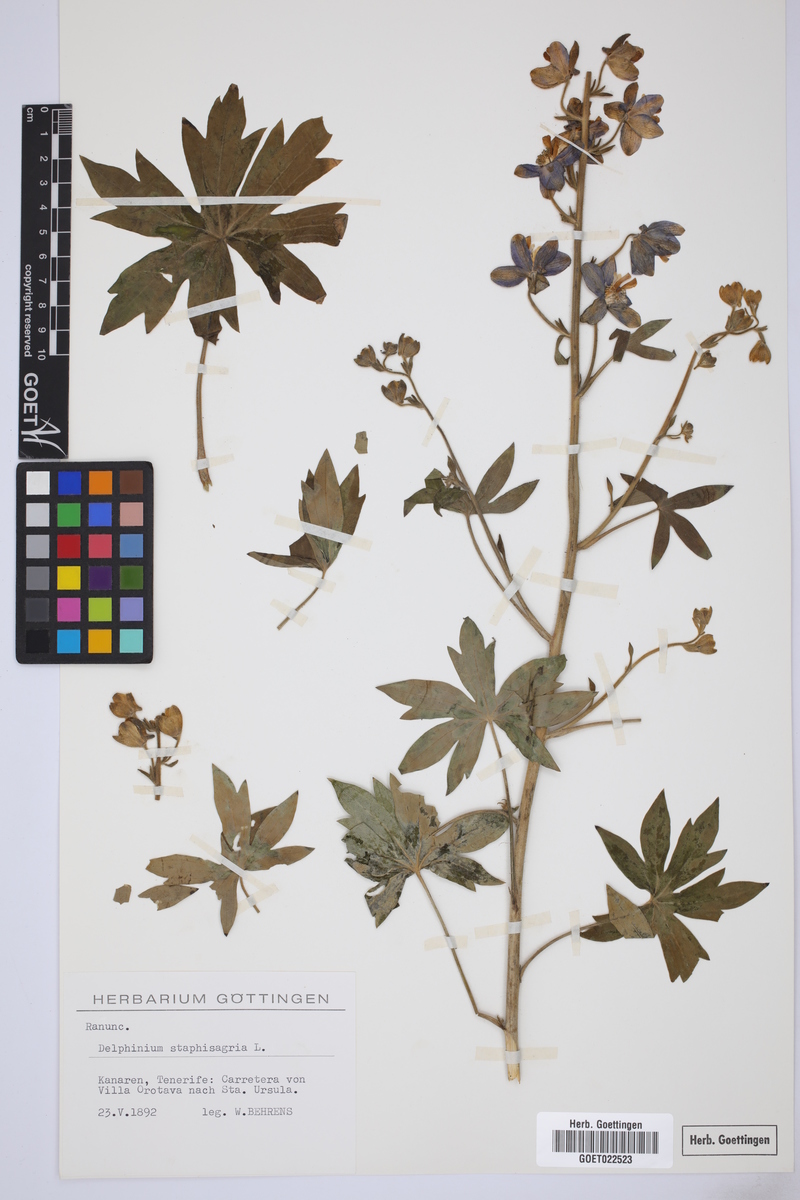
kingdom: Plantae
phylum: Tracheophyta
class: Magnoliopsida
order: Ranunculales
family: Ranunculaceae
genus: Staphisagria
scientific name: Staphisagria macrosperma
